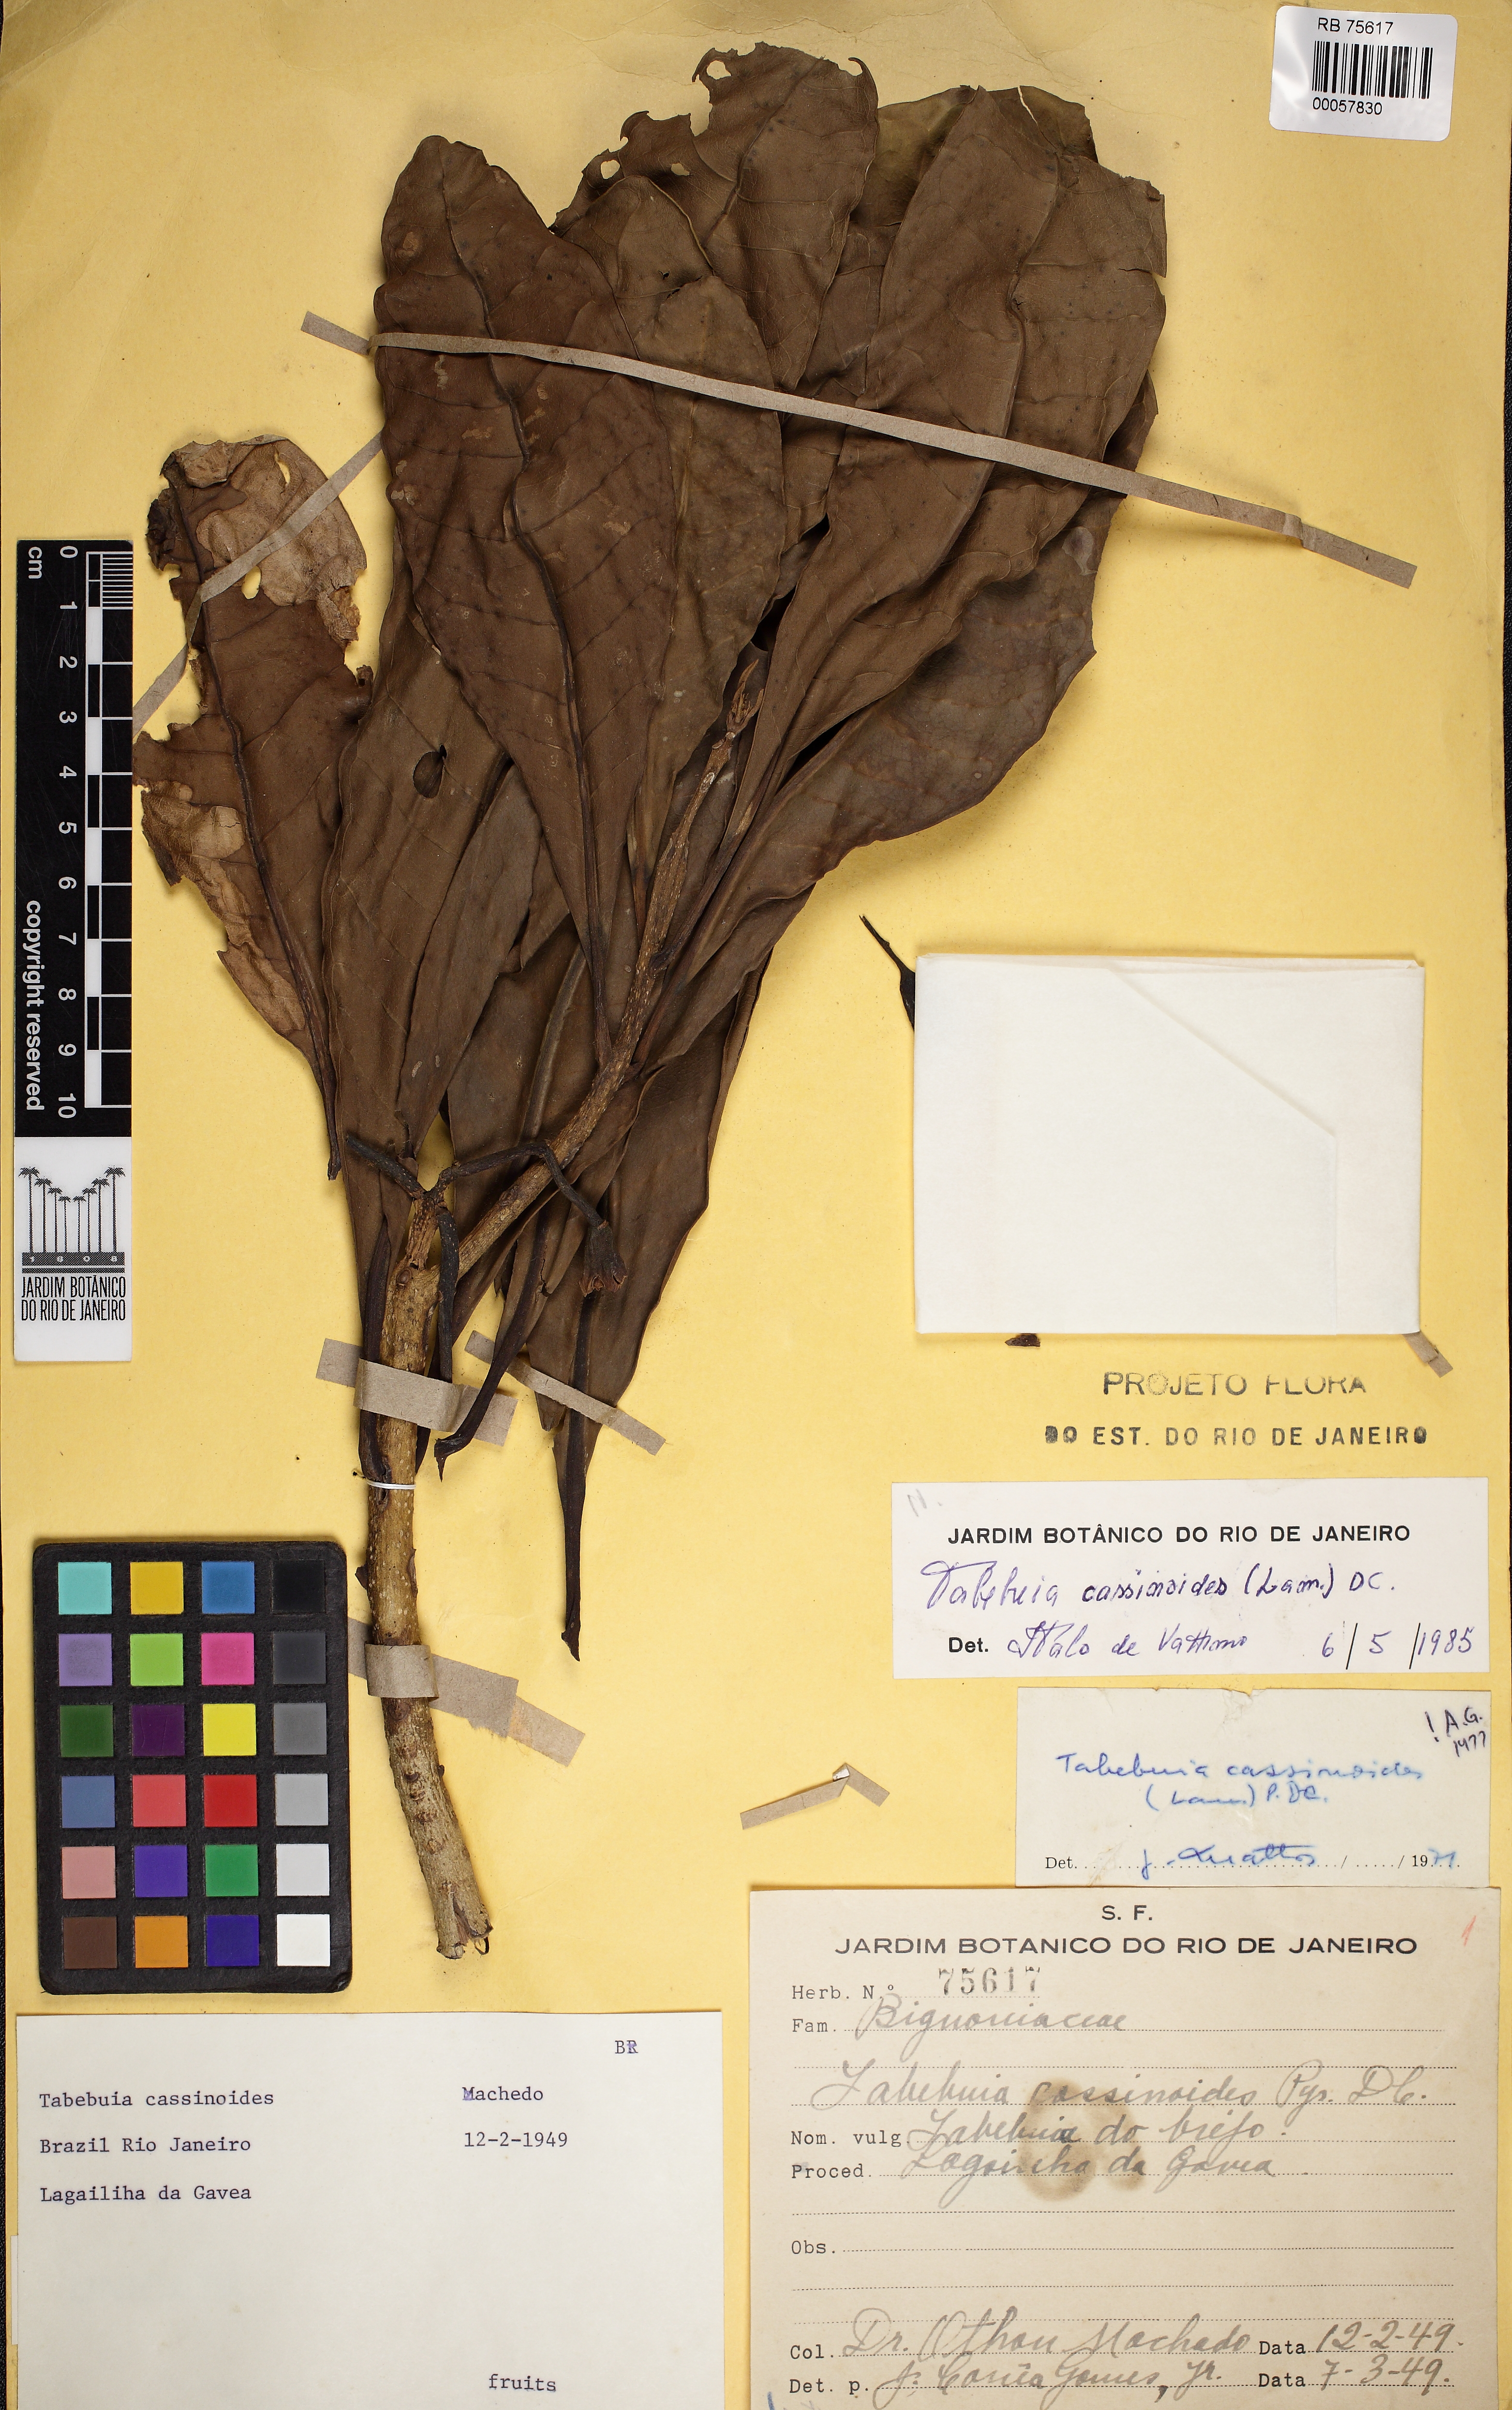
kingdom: Plantae
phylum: Tracheophyta
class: Magnoliopsida
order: Lamiales
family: Bignoniaceae
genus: Tabebuia
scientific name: Tabebuia cassinoides
